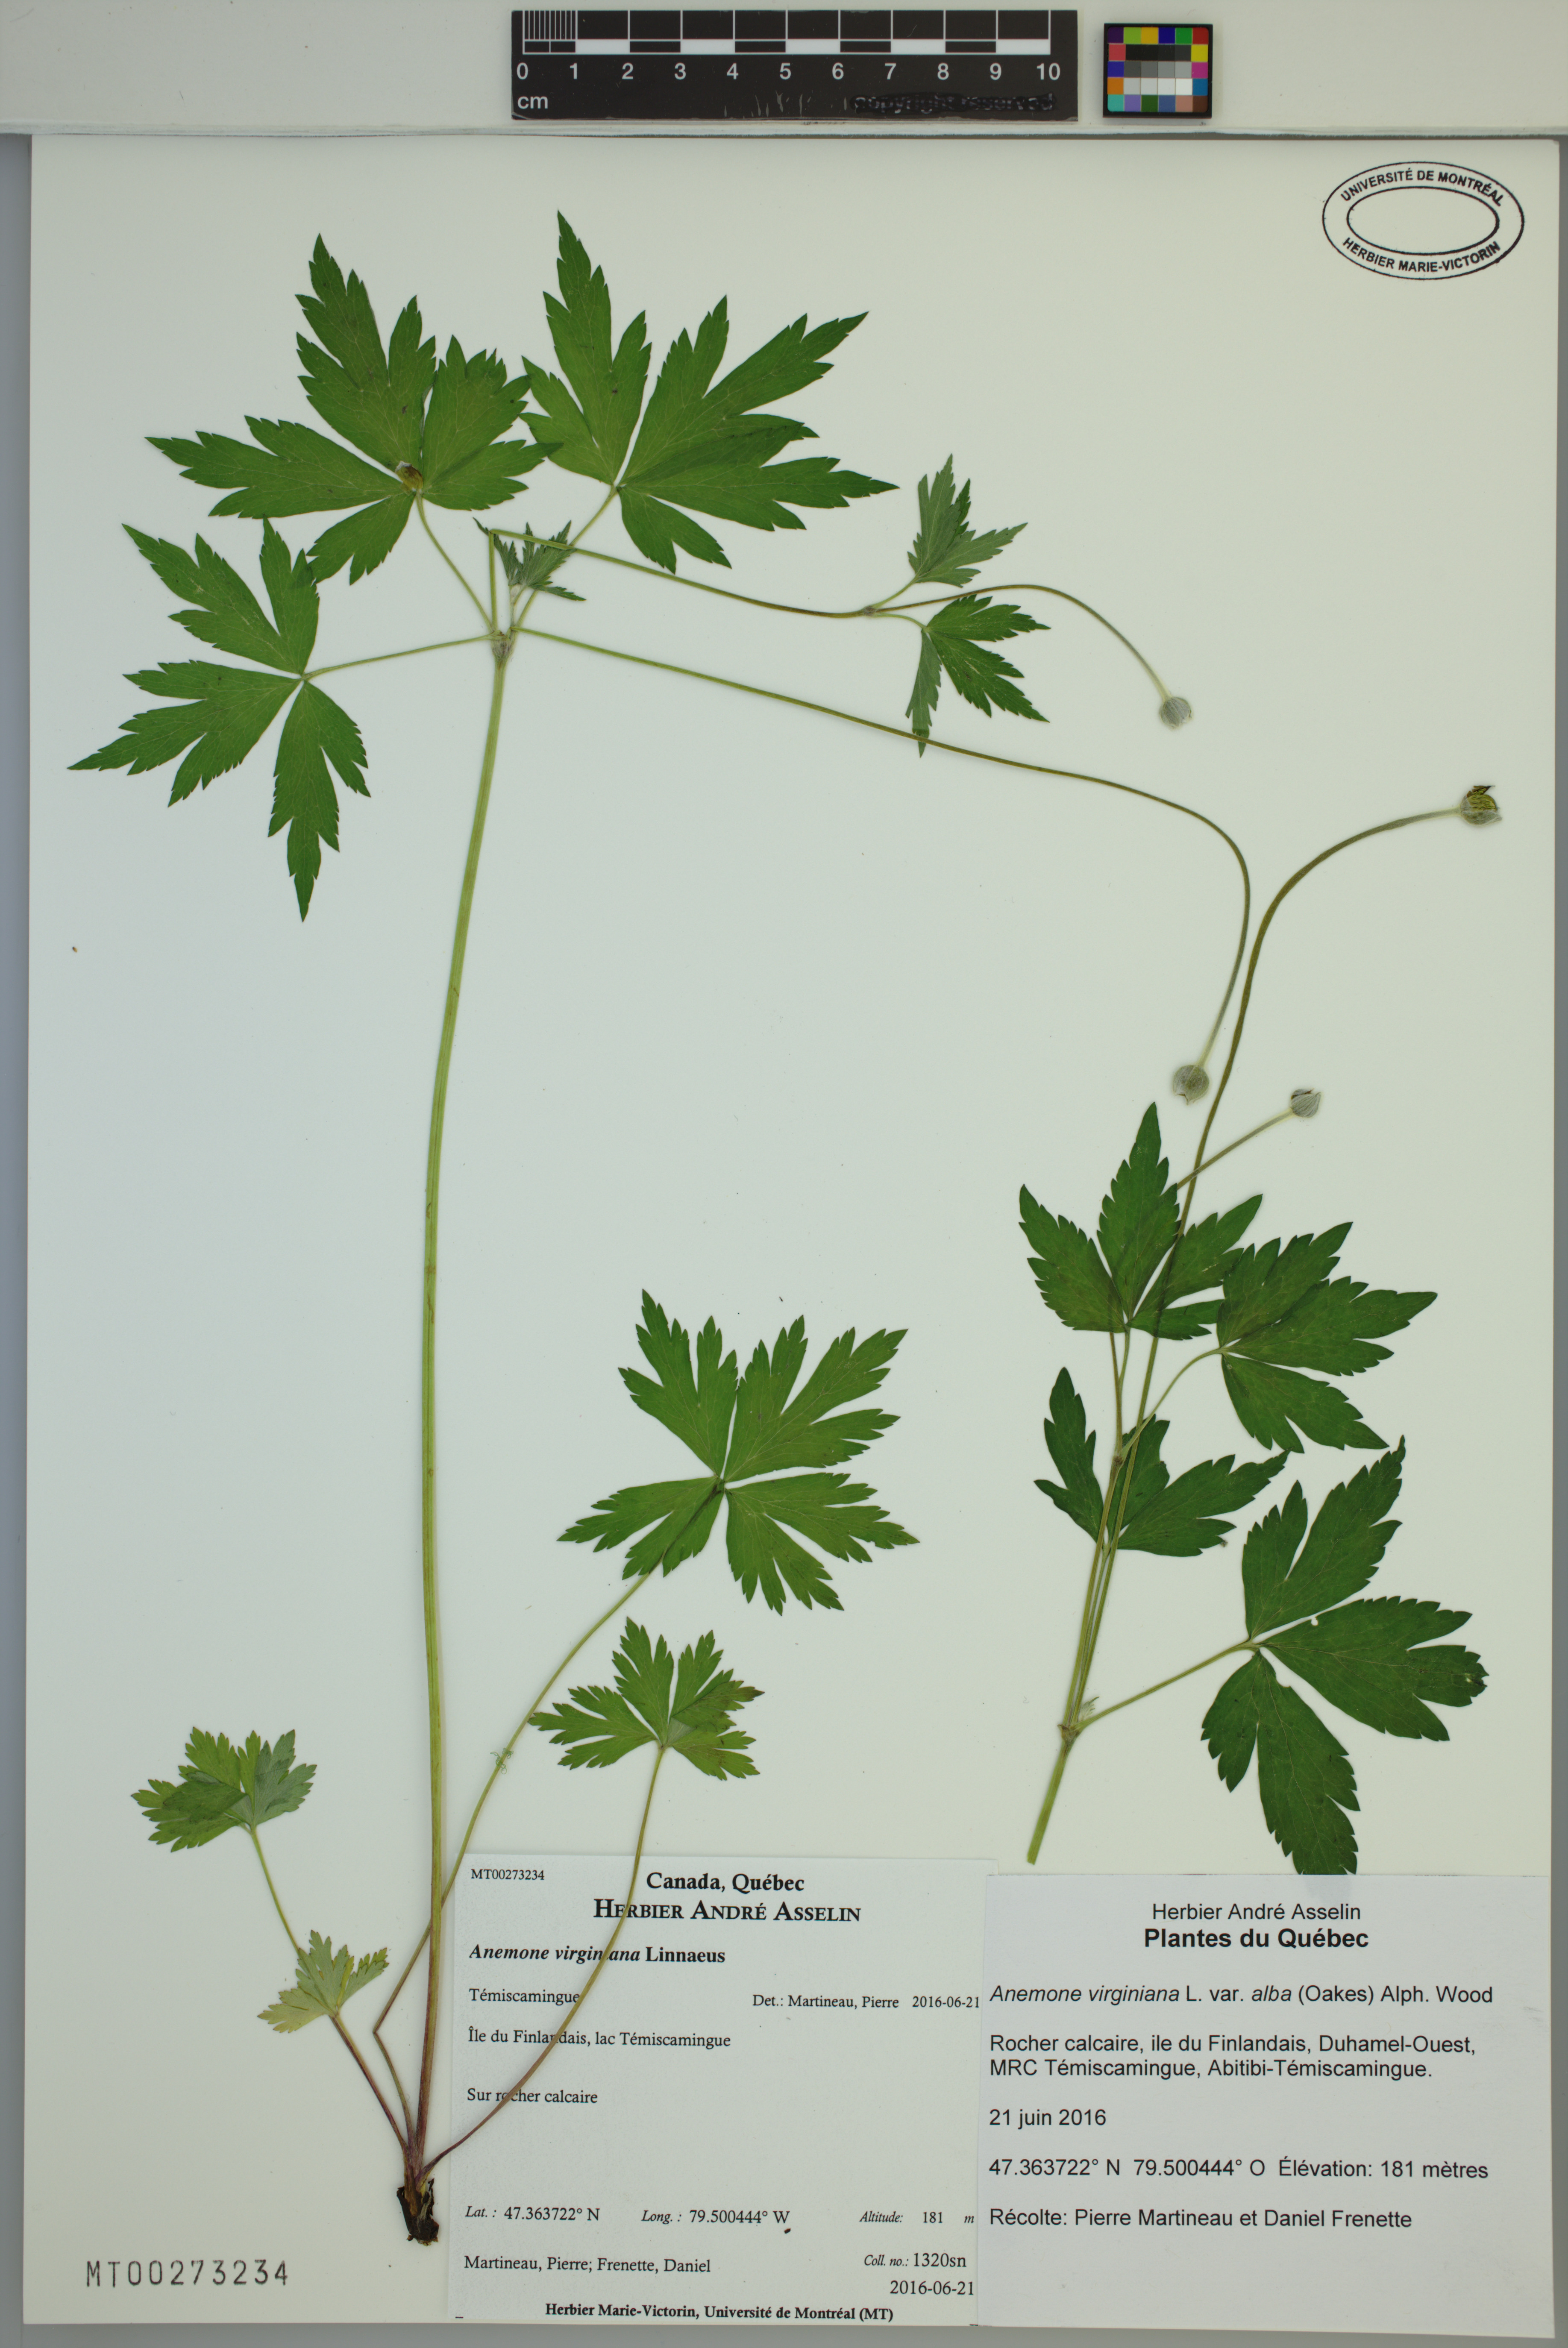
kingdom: Plantae
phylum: Tracheophyta
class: Magnoliopsida
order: Ranunculales
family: Ranunculaceae
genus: Anemone
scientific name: Anemone virginiana
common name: Tall anemone
